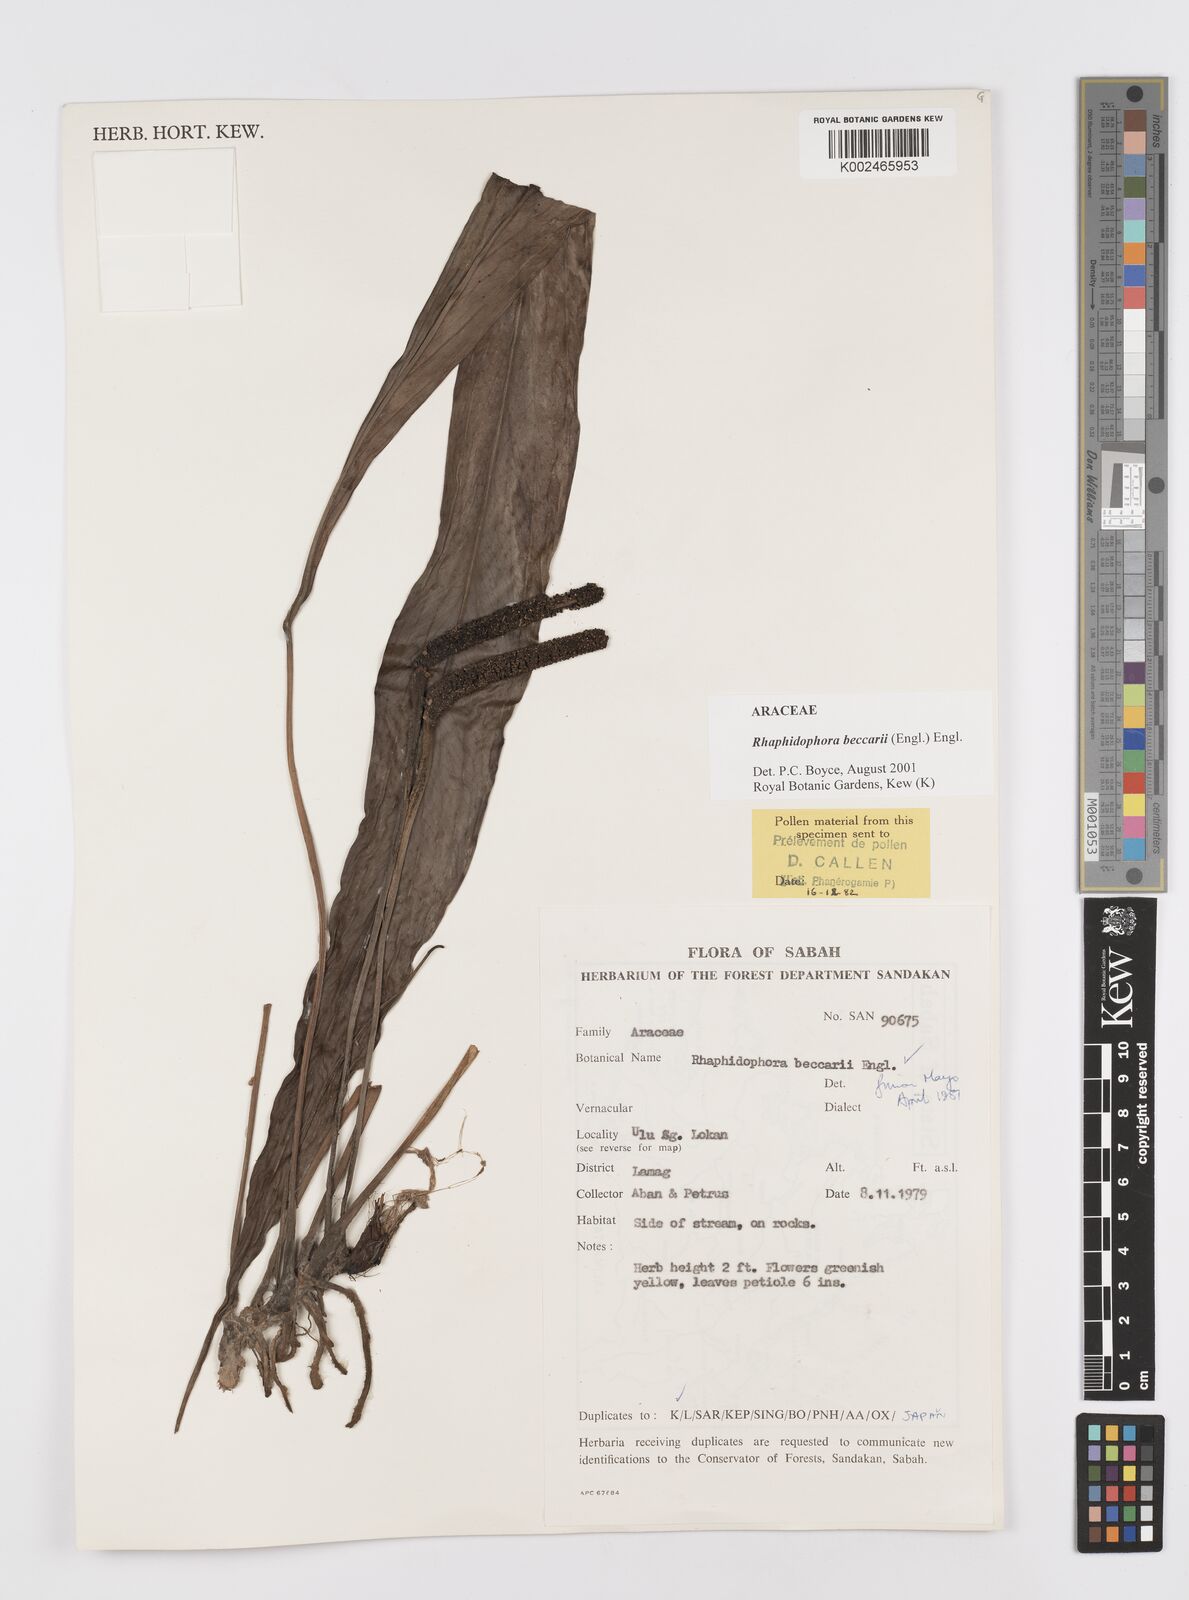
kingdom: Plantae
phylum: Tracheophyta
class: Liliopsida
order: Alismatales
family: Araceae
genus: Rhaphidophora
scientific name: Rhaphidophora beccarii
